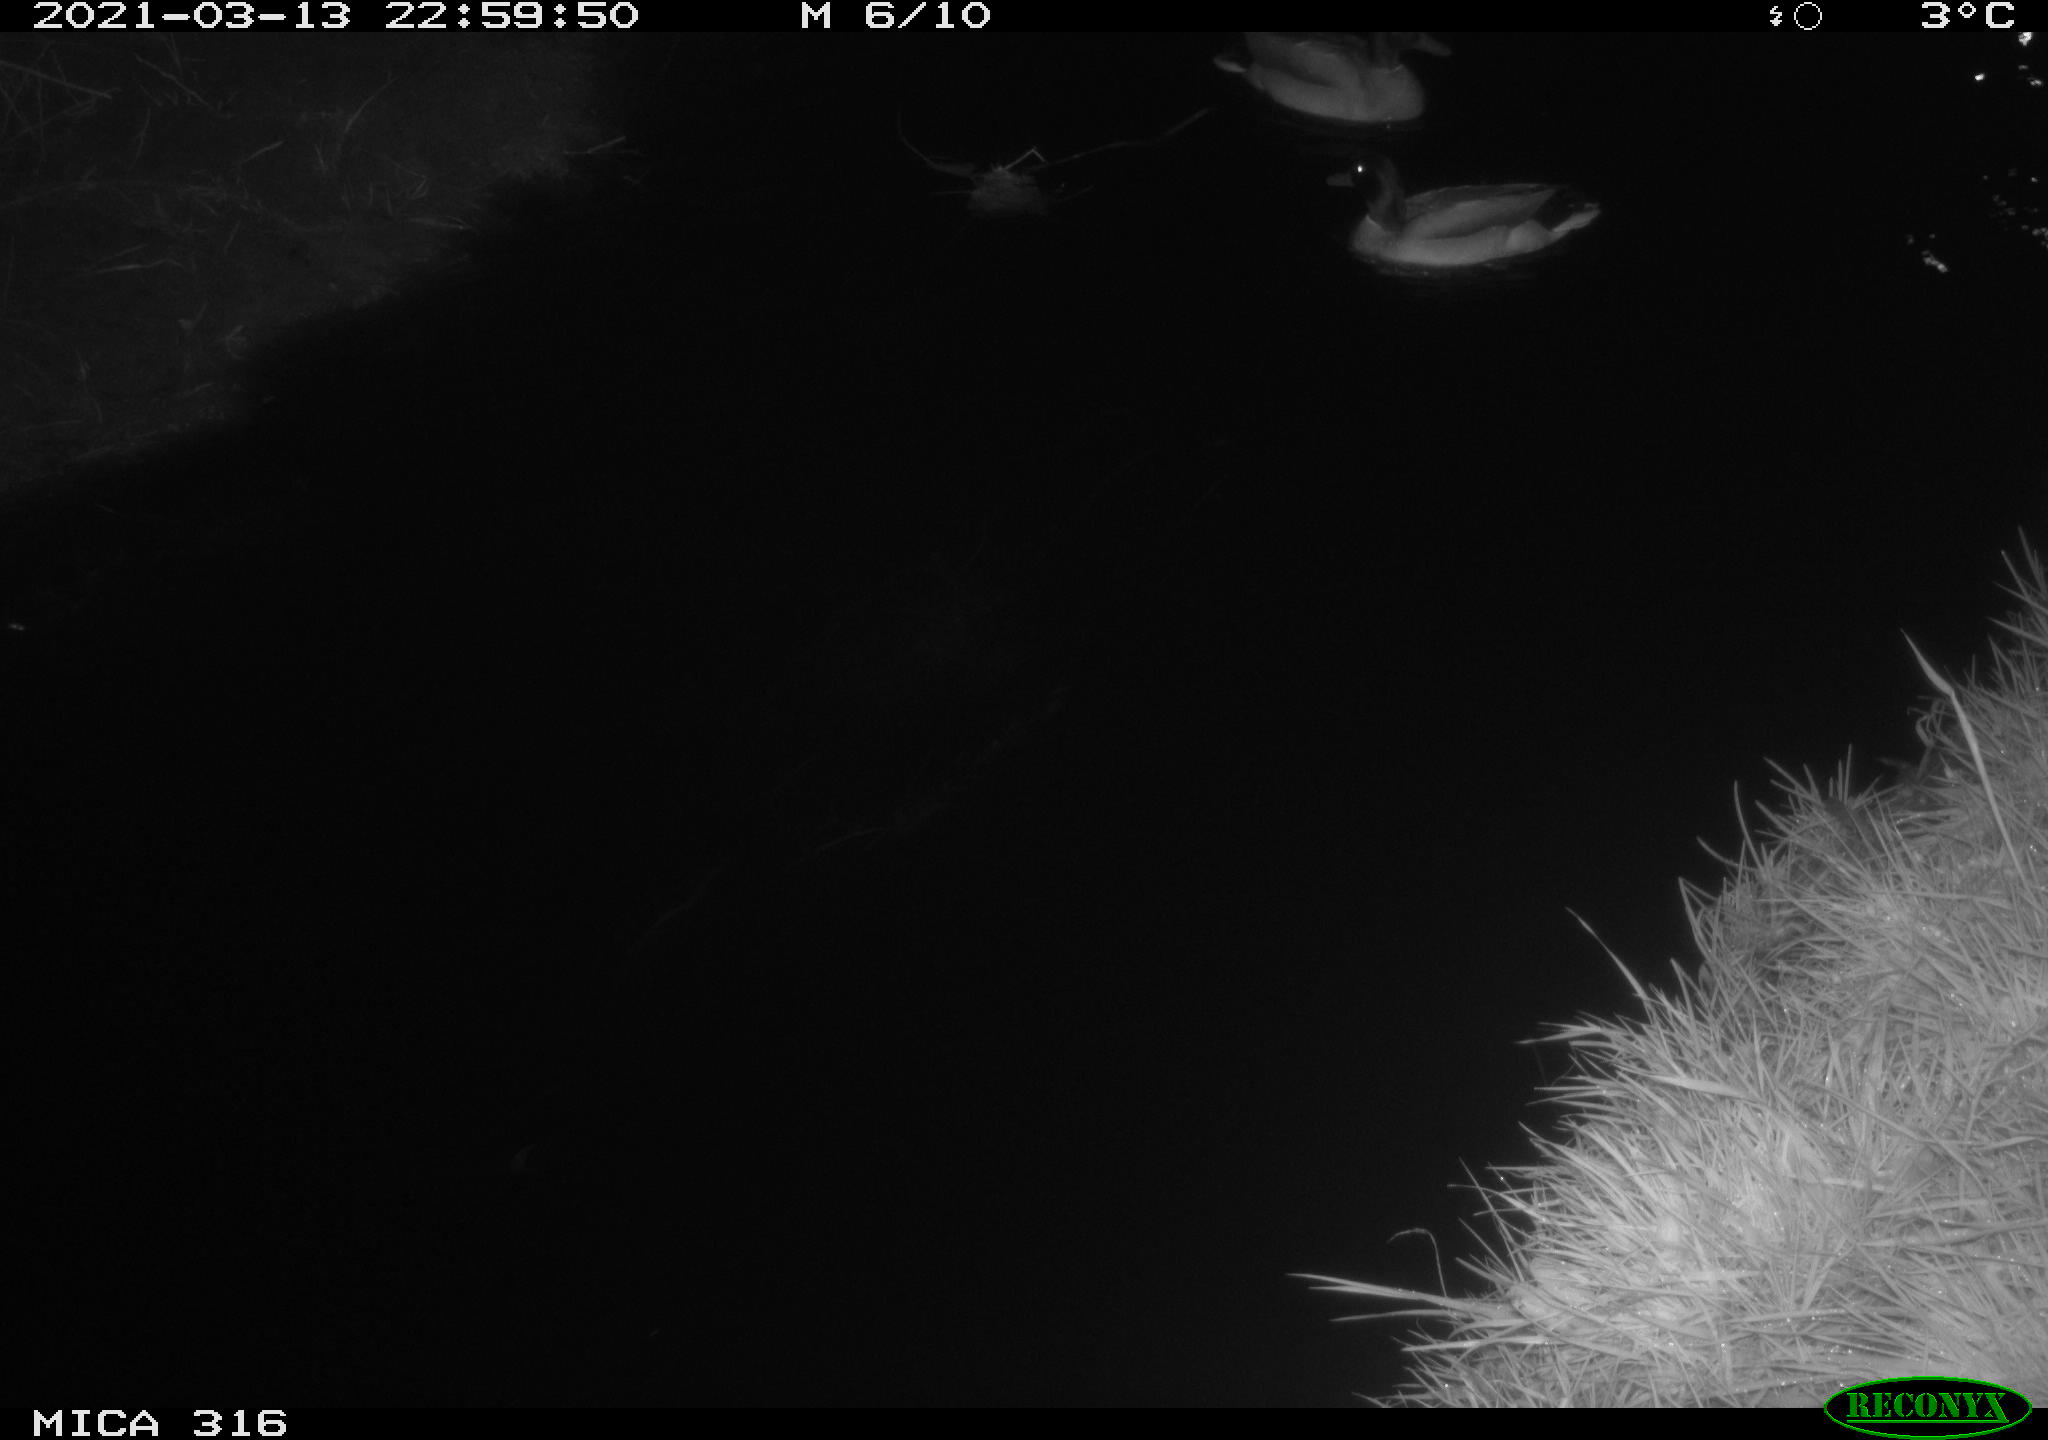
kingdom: Animalia
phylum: Chordata
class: Aves
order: Anseriformes
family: Anatidae
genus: Anas
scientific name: Anas platyrhynchos
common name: Mallard
